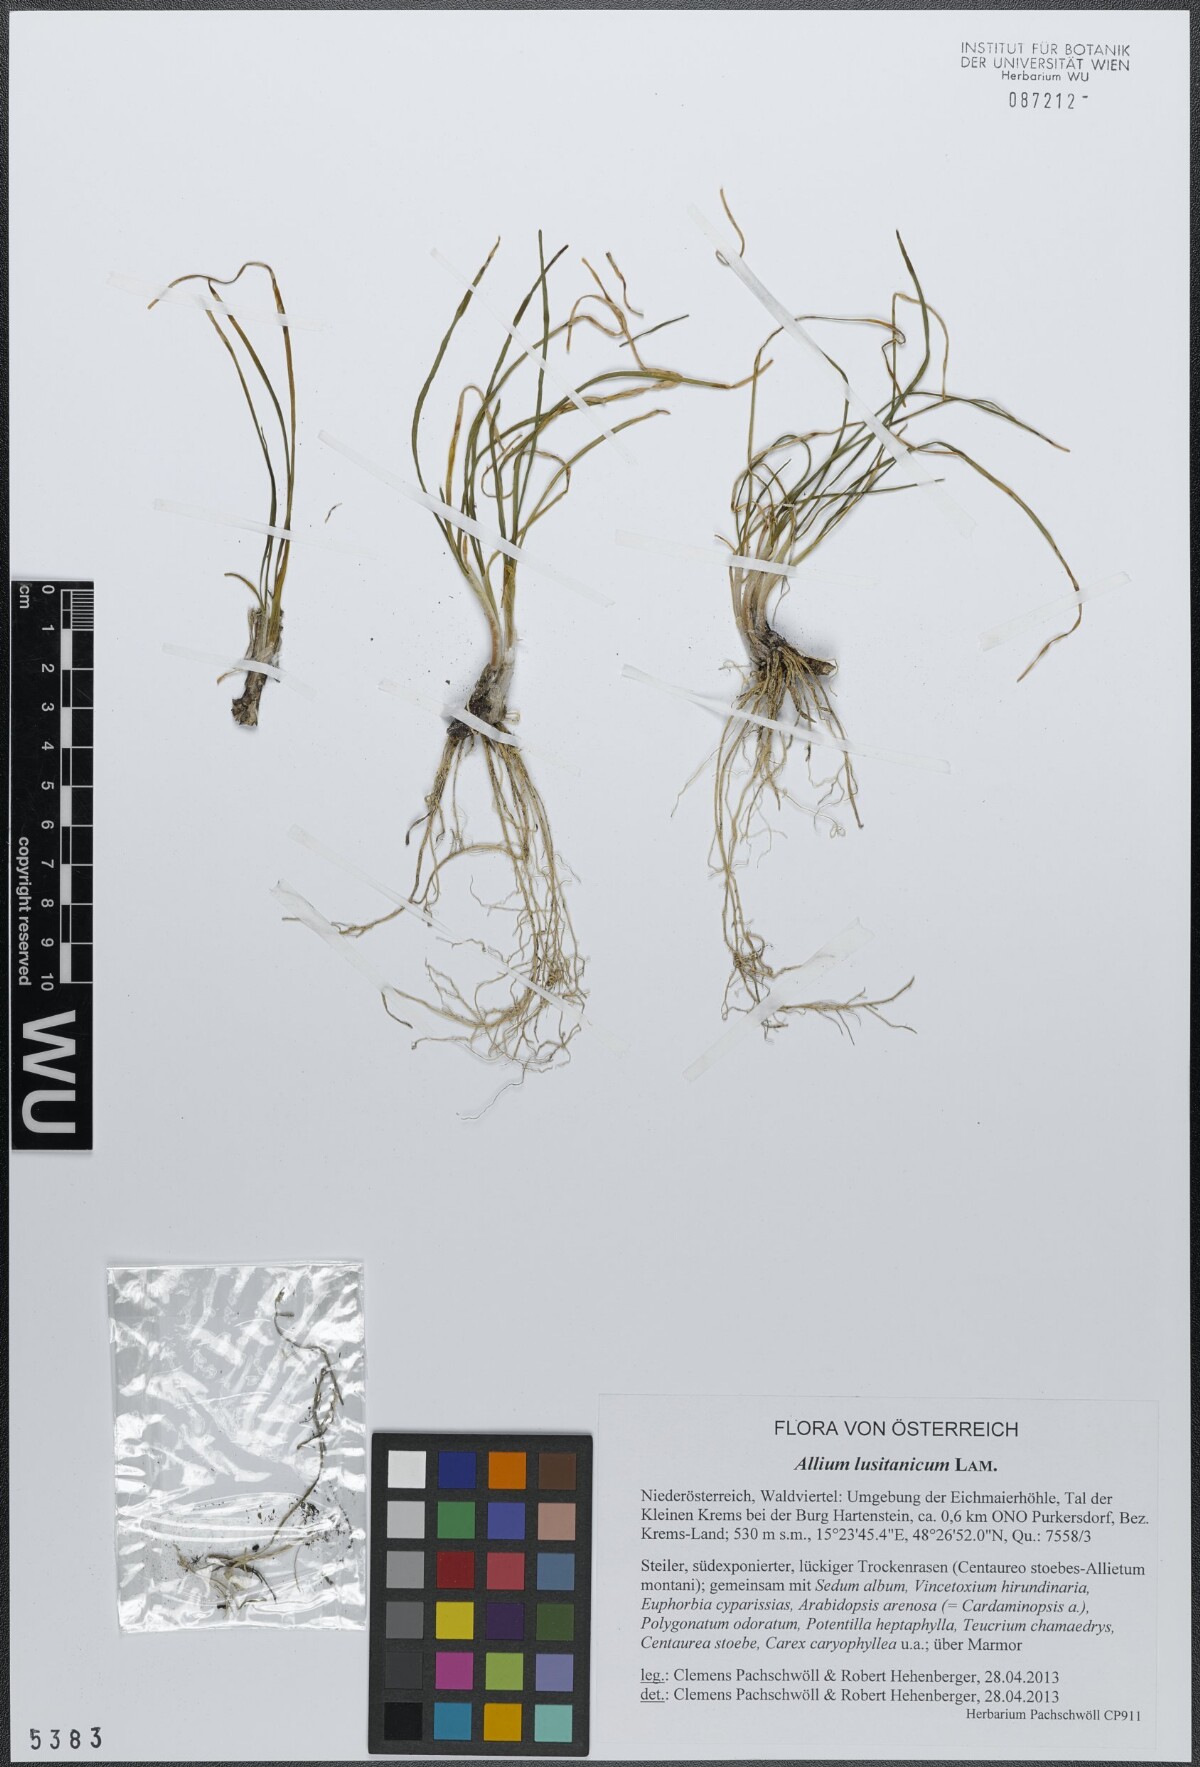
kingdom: Plantae
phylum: Tracheophyta
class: Liliopsida
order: Asparagales
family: Amaryllidaceae
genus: Allium
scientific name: Allium lusitanicum
